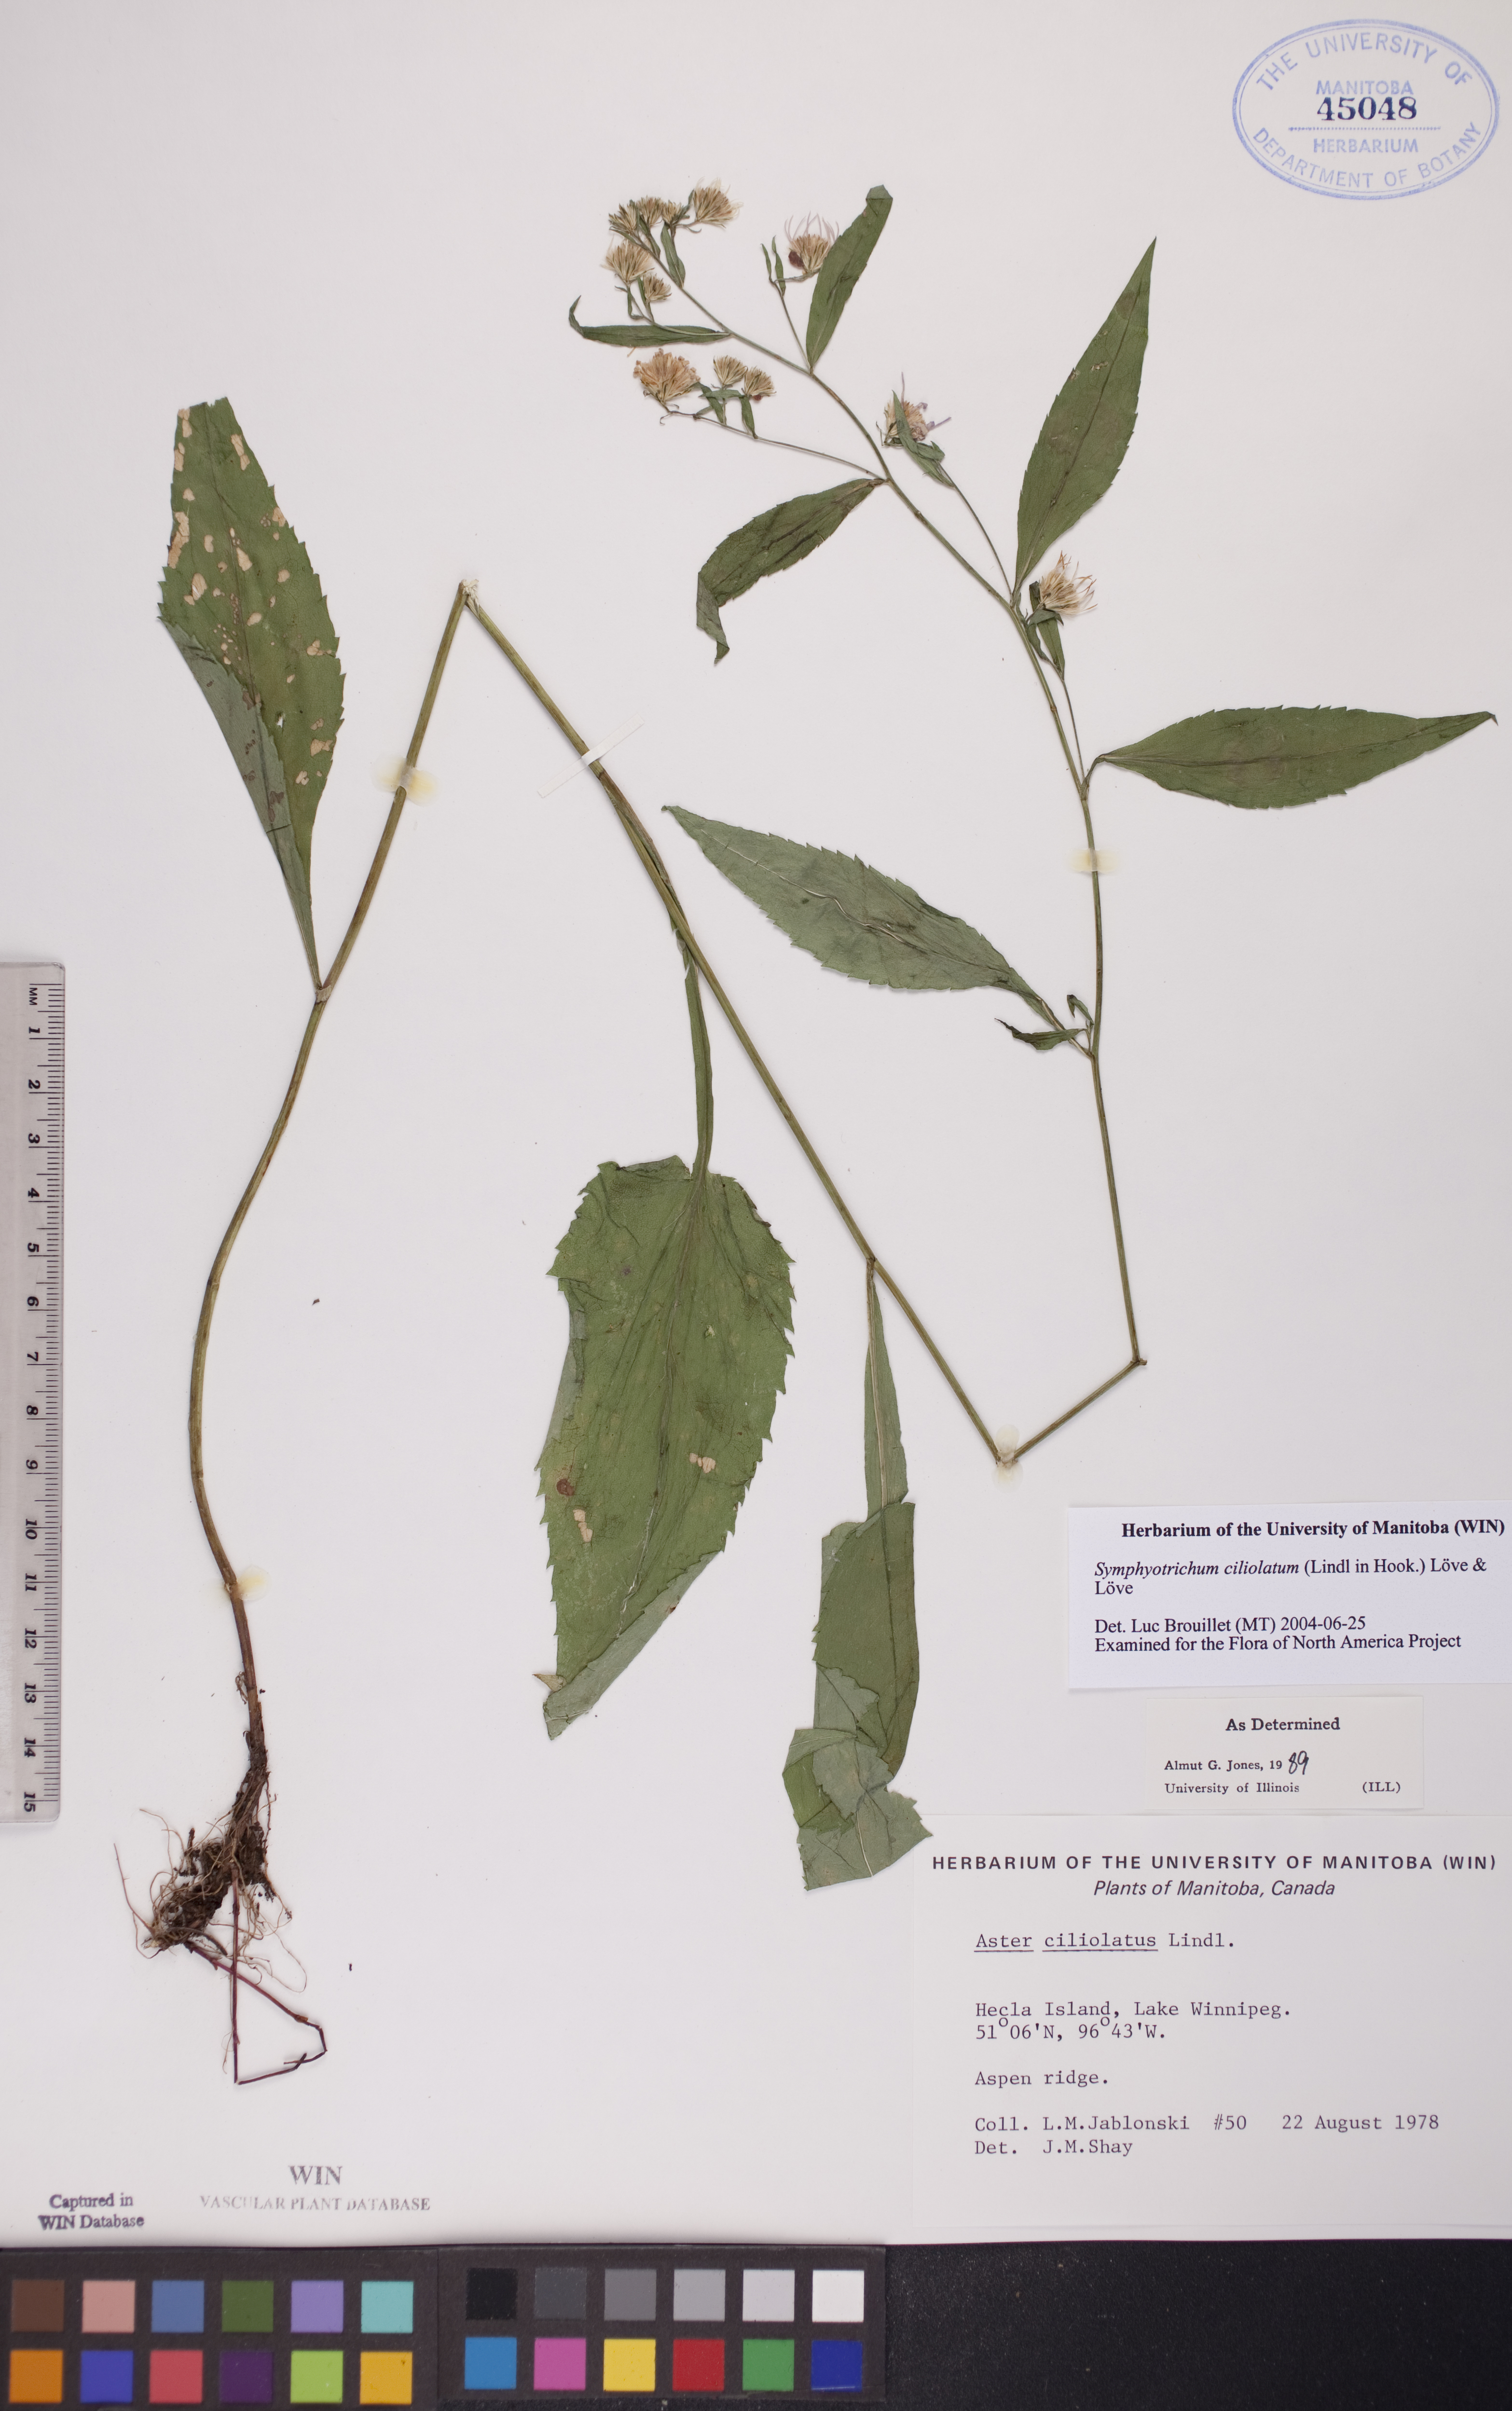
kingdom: Plantae
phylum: Tracheophyta
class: Magnoliopsida
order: Asterales
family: Asteraceae
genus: Symphyotrichum
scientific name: Symphyotrichum ciliolatum
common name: Fringed blue aster
